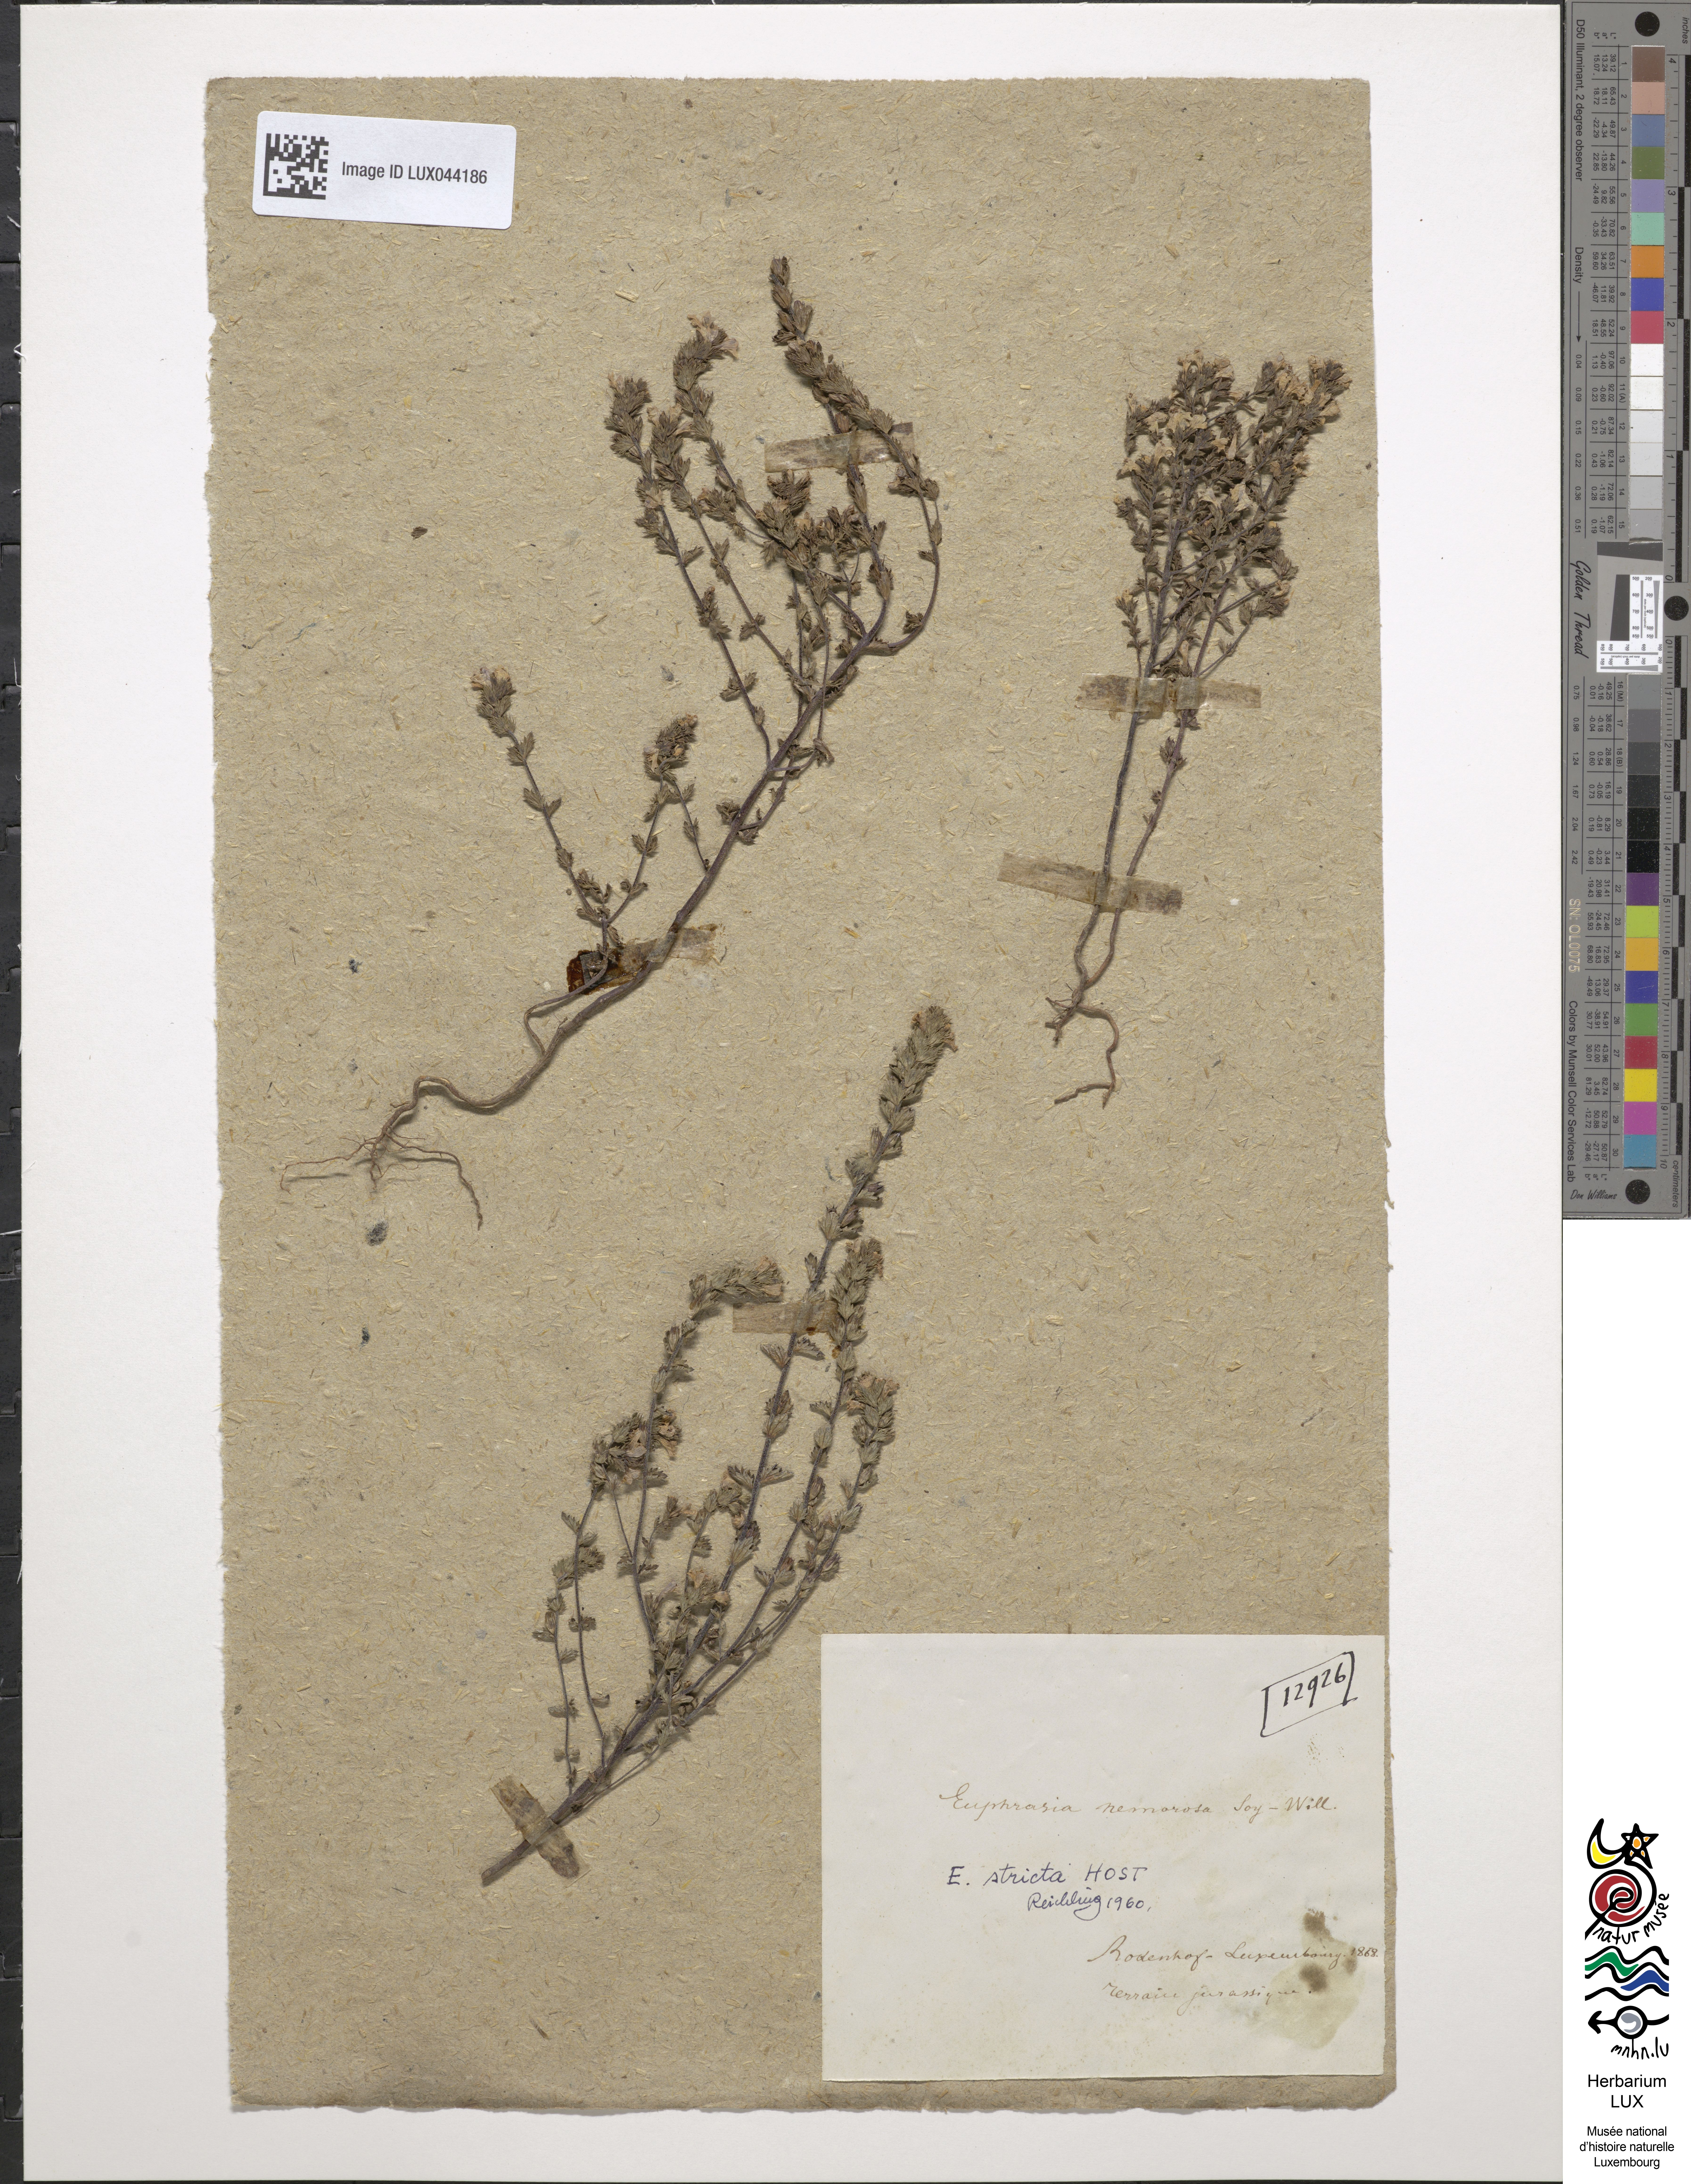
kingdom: Plantae
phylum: Tracheophyta
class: Magnoliopsida
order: Lamiales
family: Orobanchaceae
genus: Euphrasia
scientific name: Euphrasia nemorosa
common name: Common eyebright
